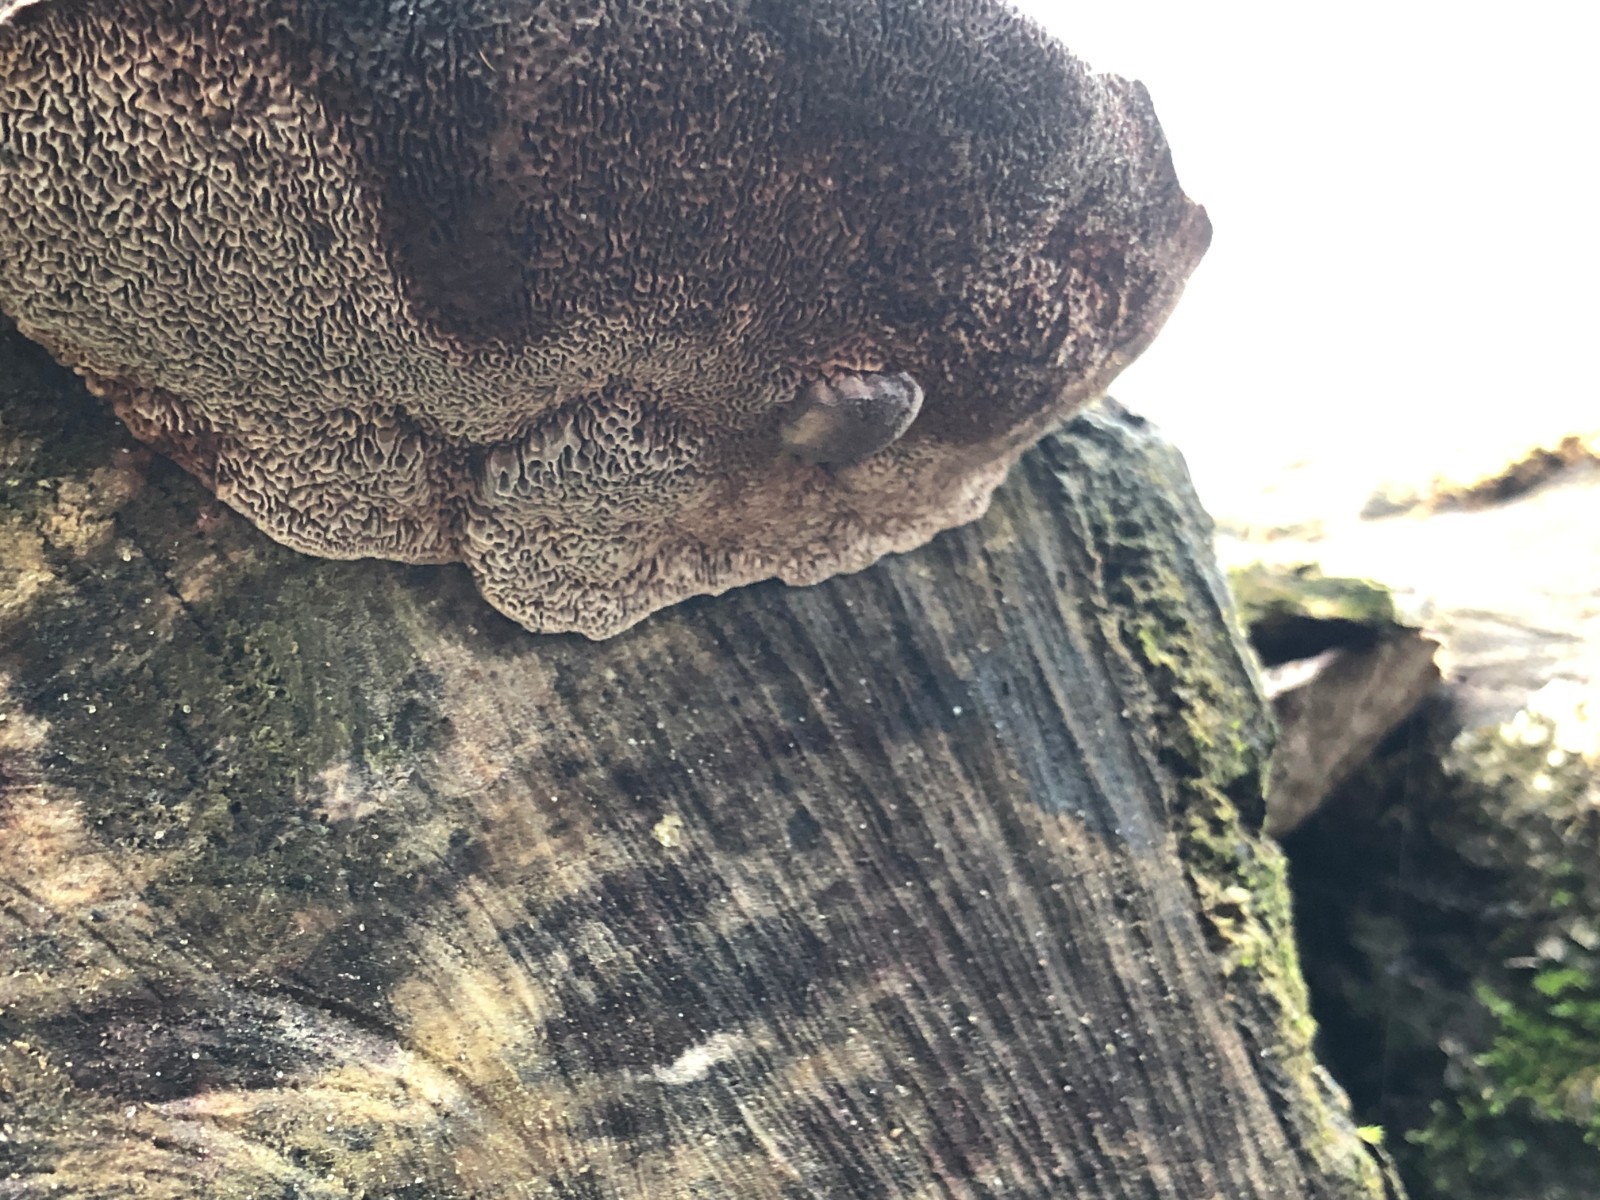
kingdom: Fungi
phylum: Basidiomycota
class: Agaricomycetes
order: Polyporales
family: Polyporaceae
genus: Daedaleopsis
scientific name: Daedaleopsis confragosa
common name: rødmende læderporesvamp
